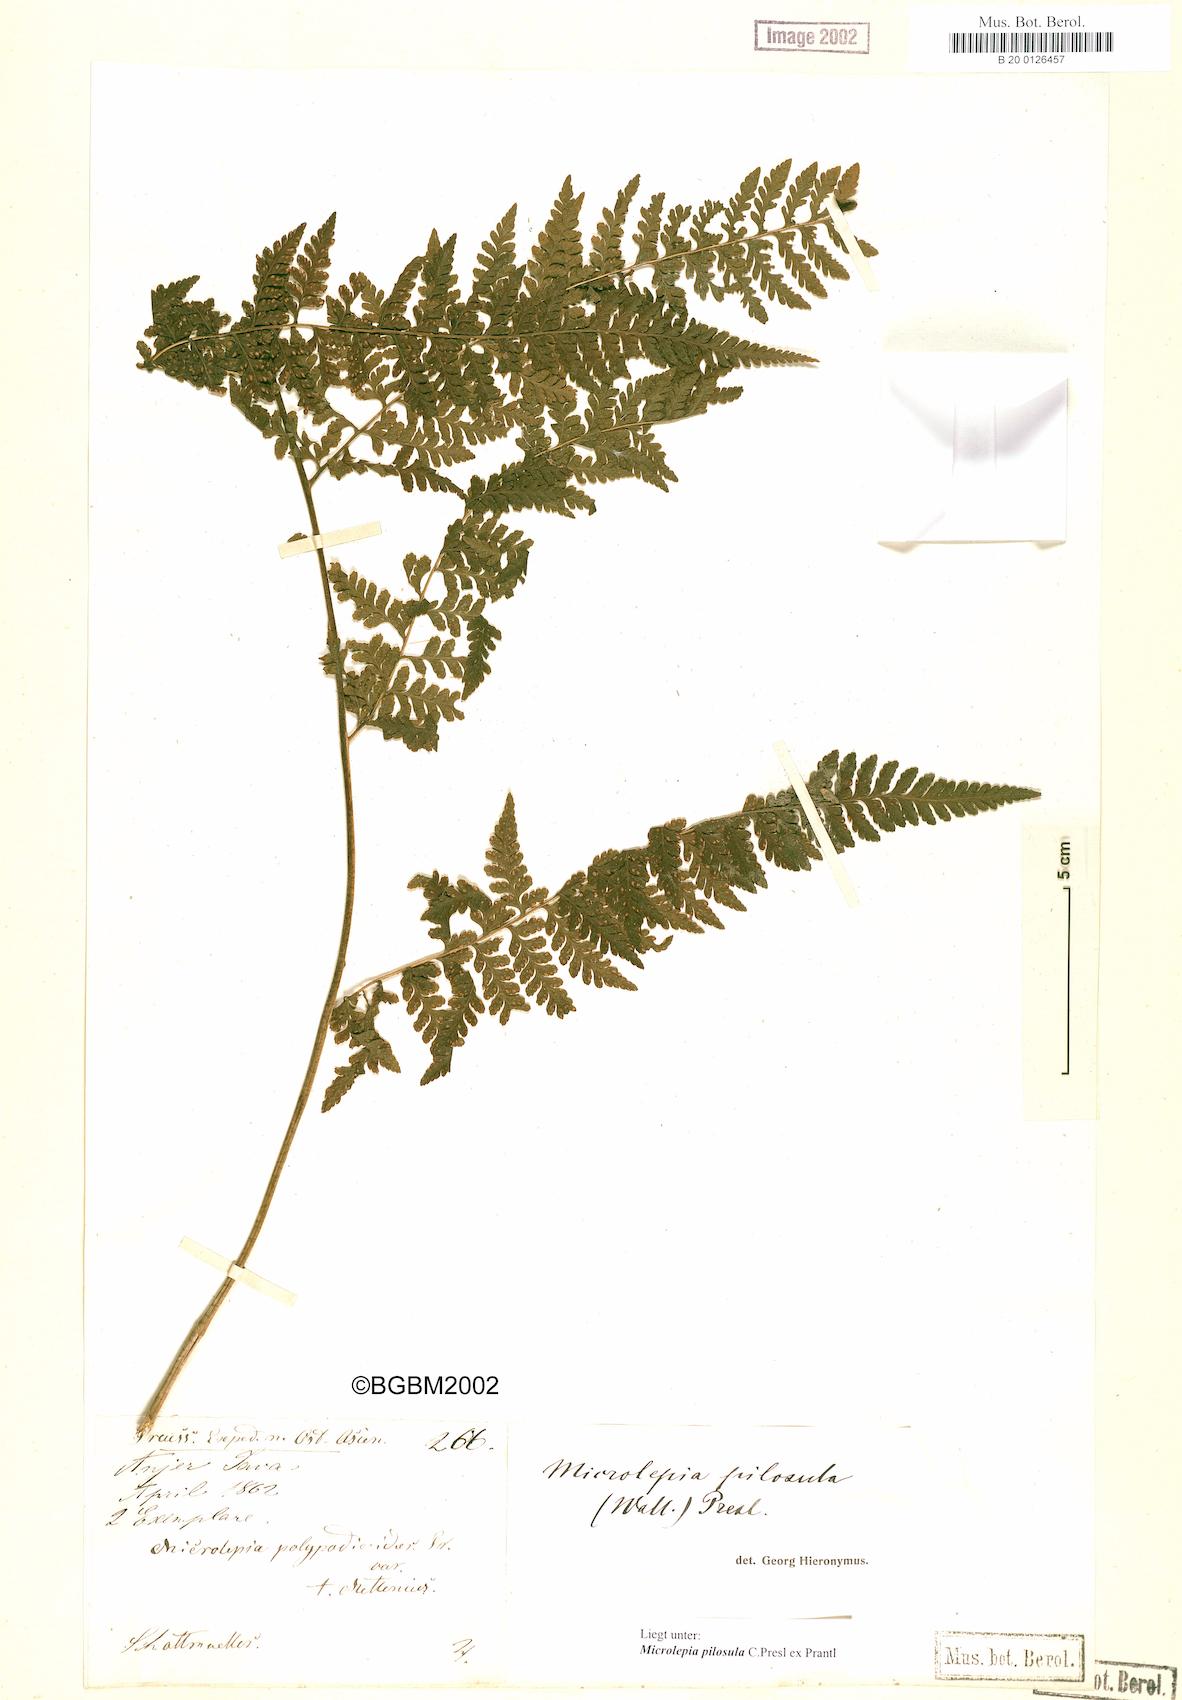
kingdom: Plantae
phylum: Tracheophyta
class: Polypodiopsida
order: Polypodiales
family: Dennstaedtiaceae
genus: Microlepia
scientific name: Microlepia speluncae
